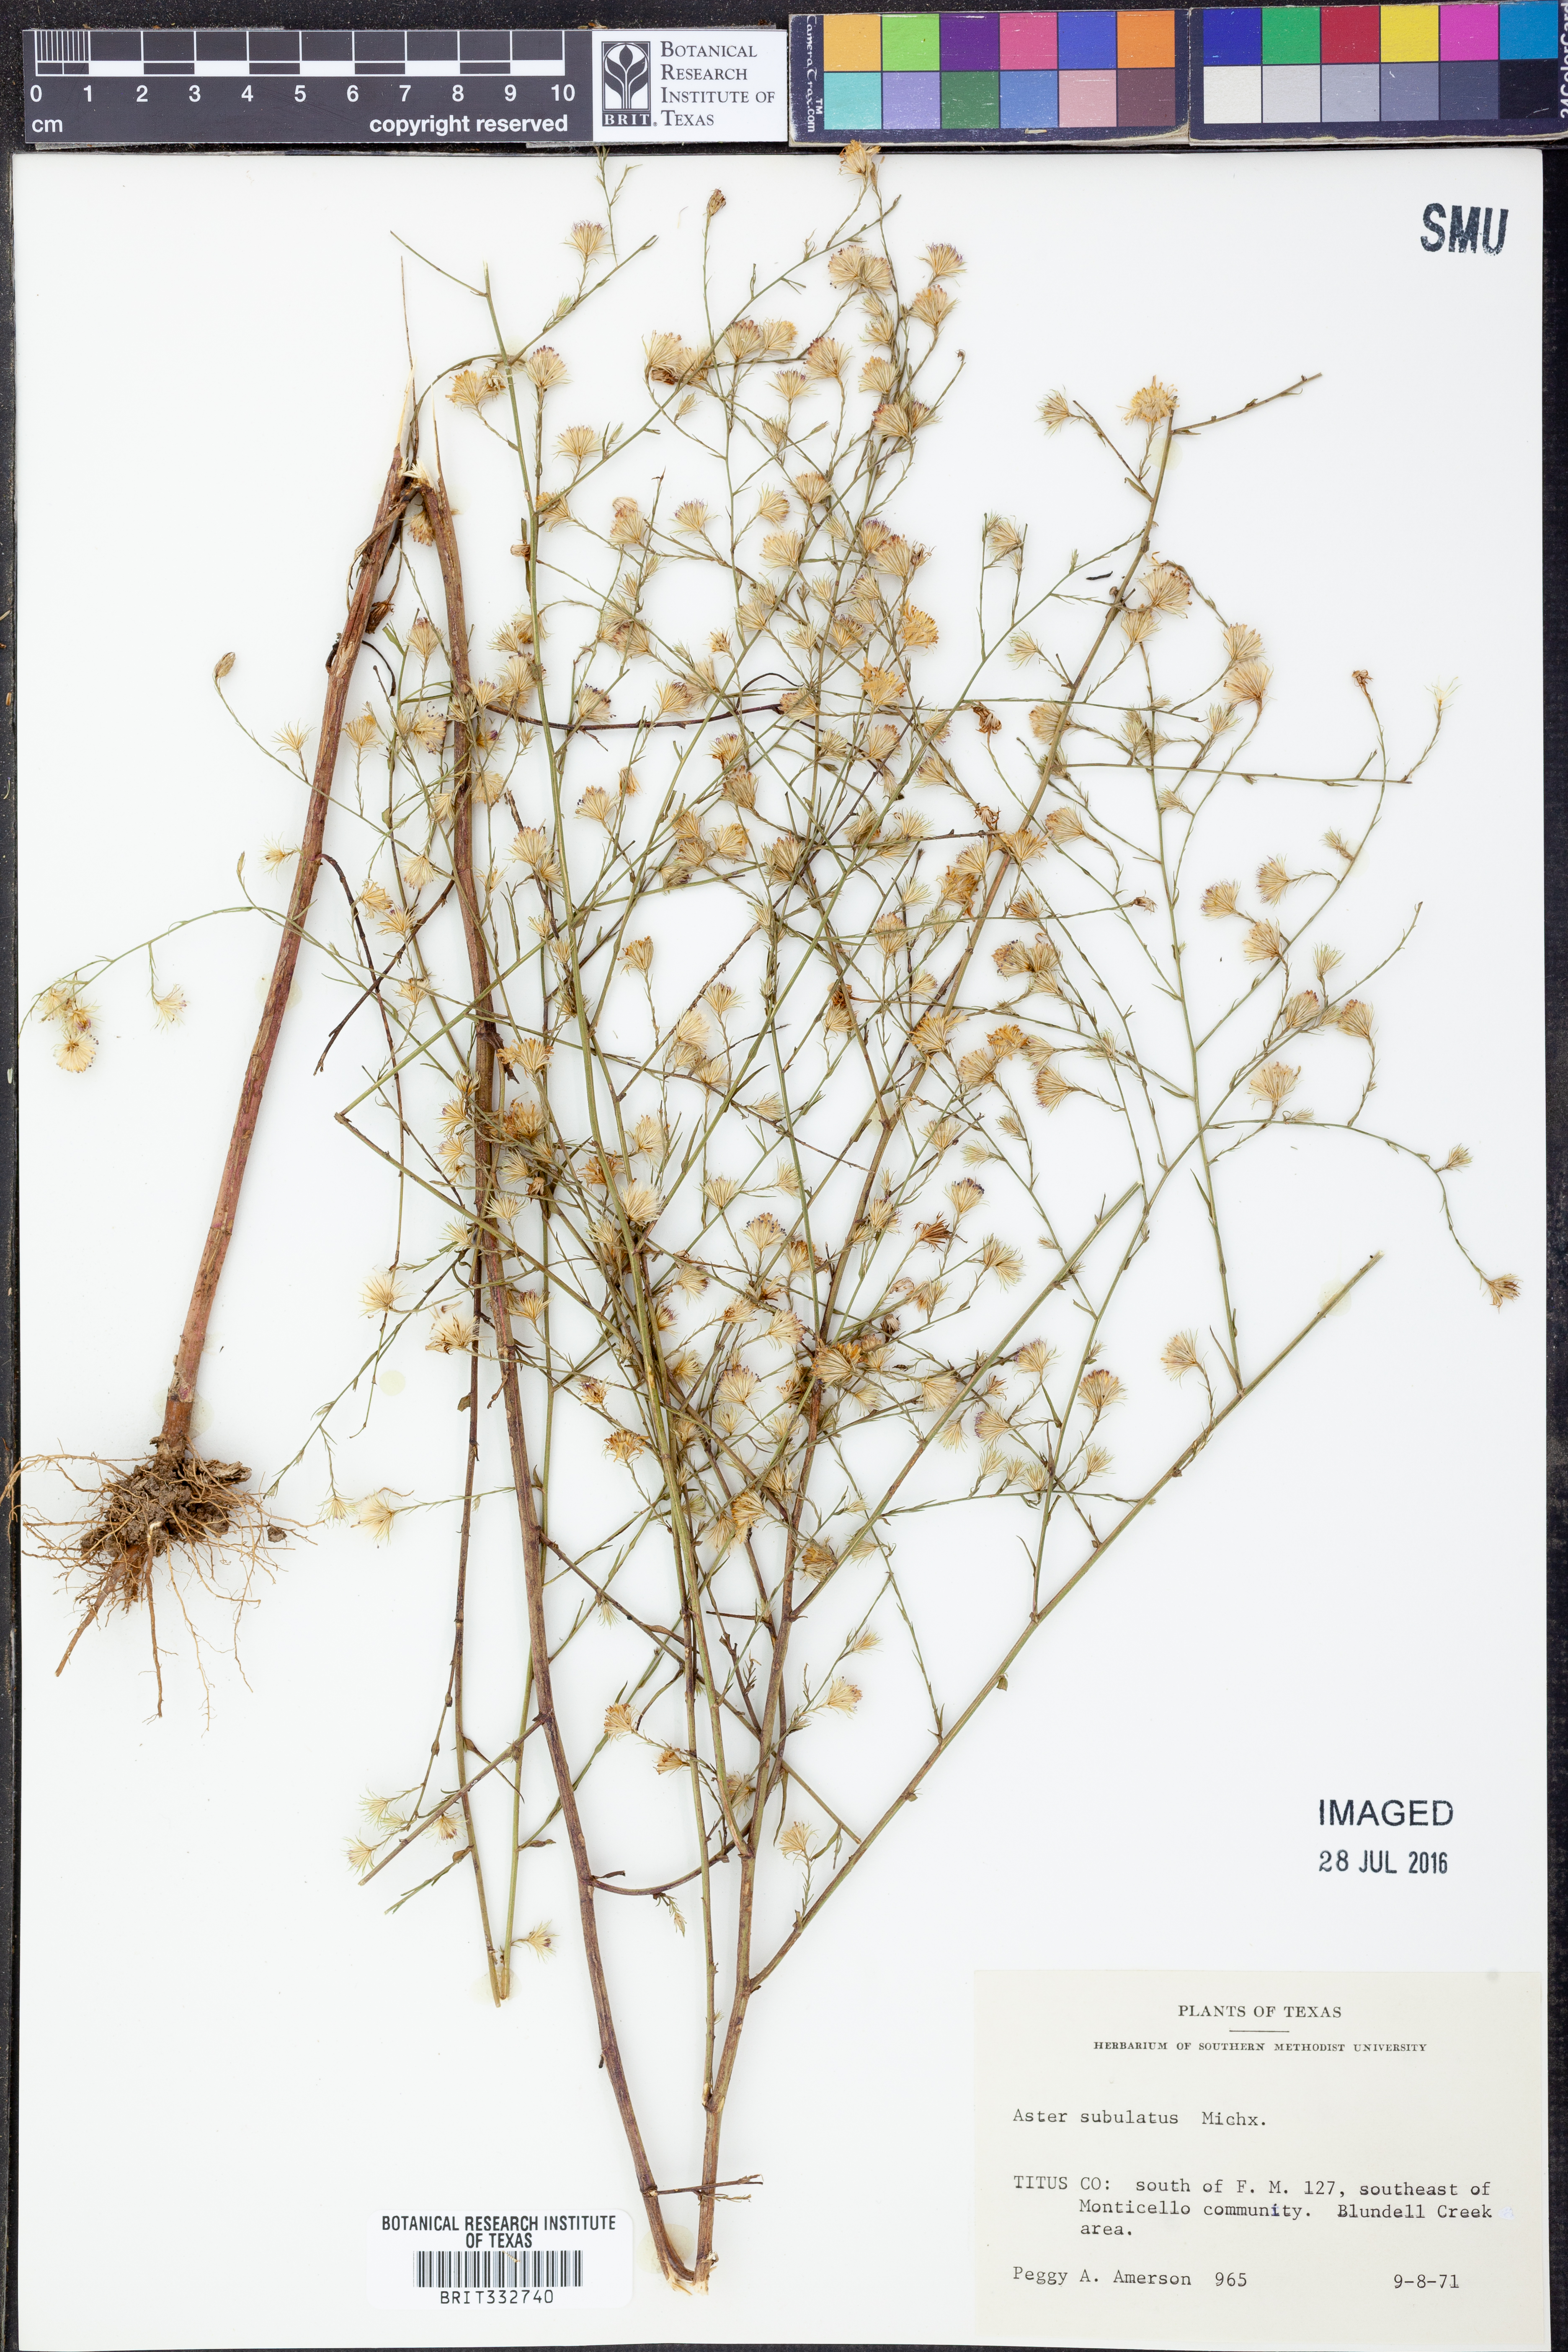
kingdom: Plantae
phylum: Tracheophyta
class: Magnoliopsida
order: Asterales
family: Asteraceae
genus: Symphyotrichum
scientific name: Symphyotrichum subulatum
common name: Annual saltmarsh aster
